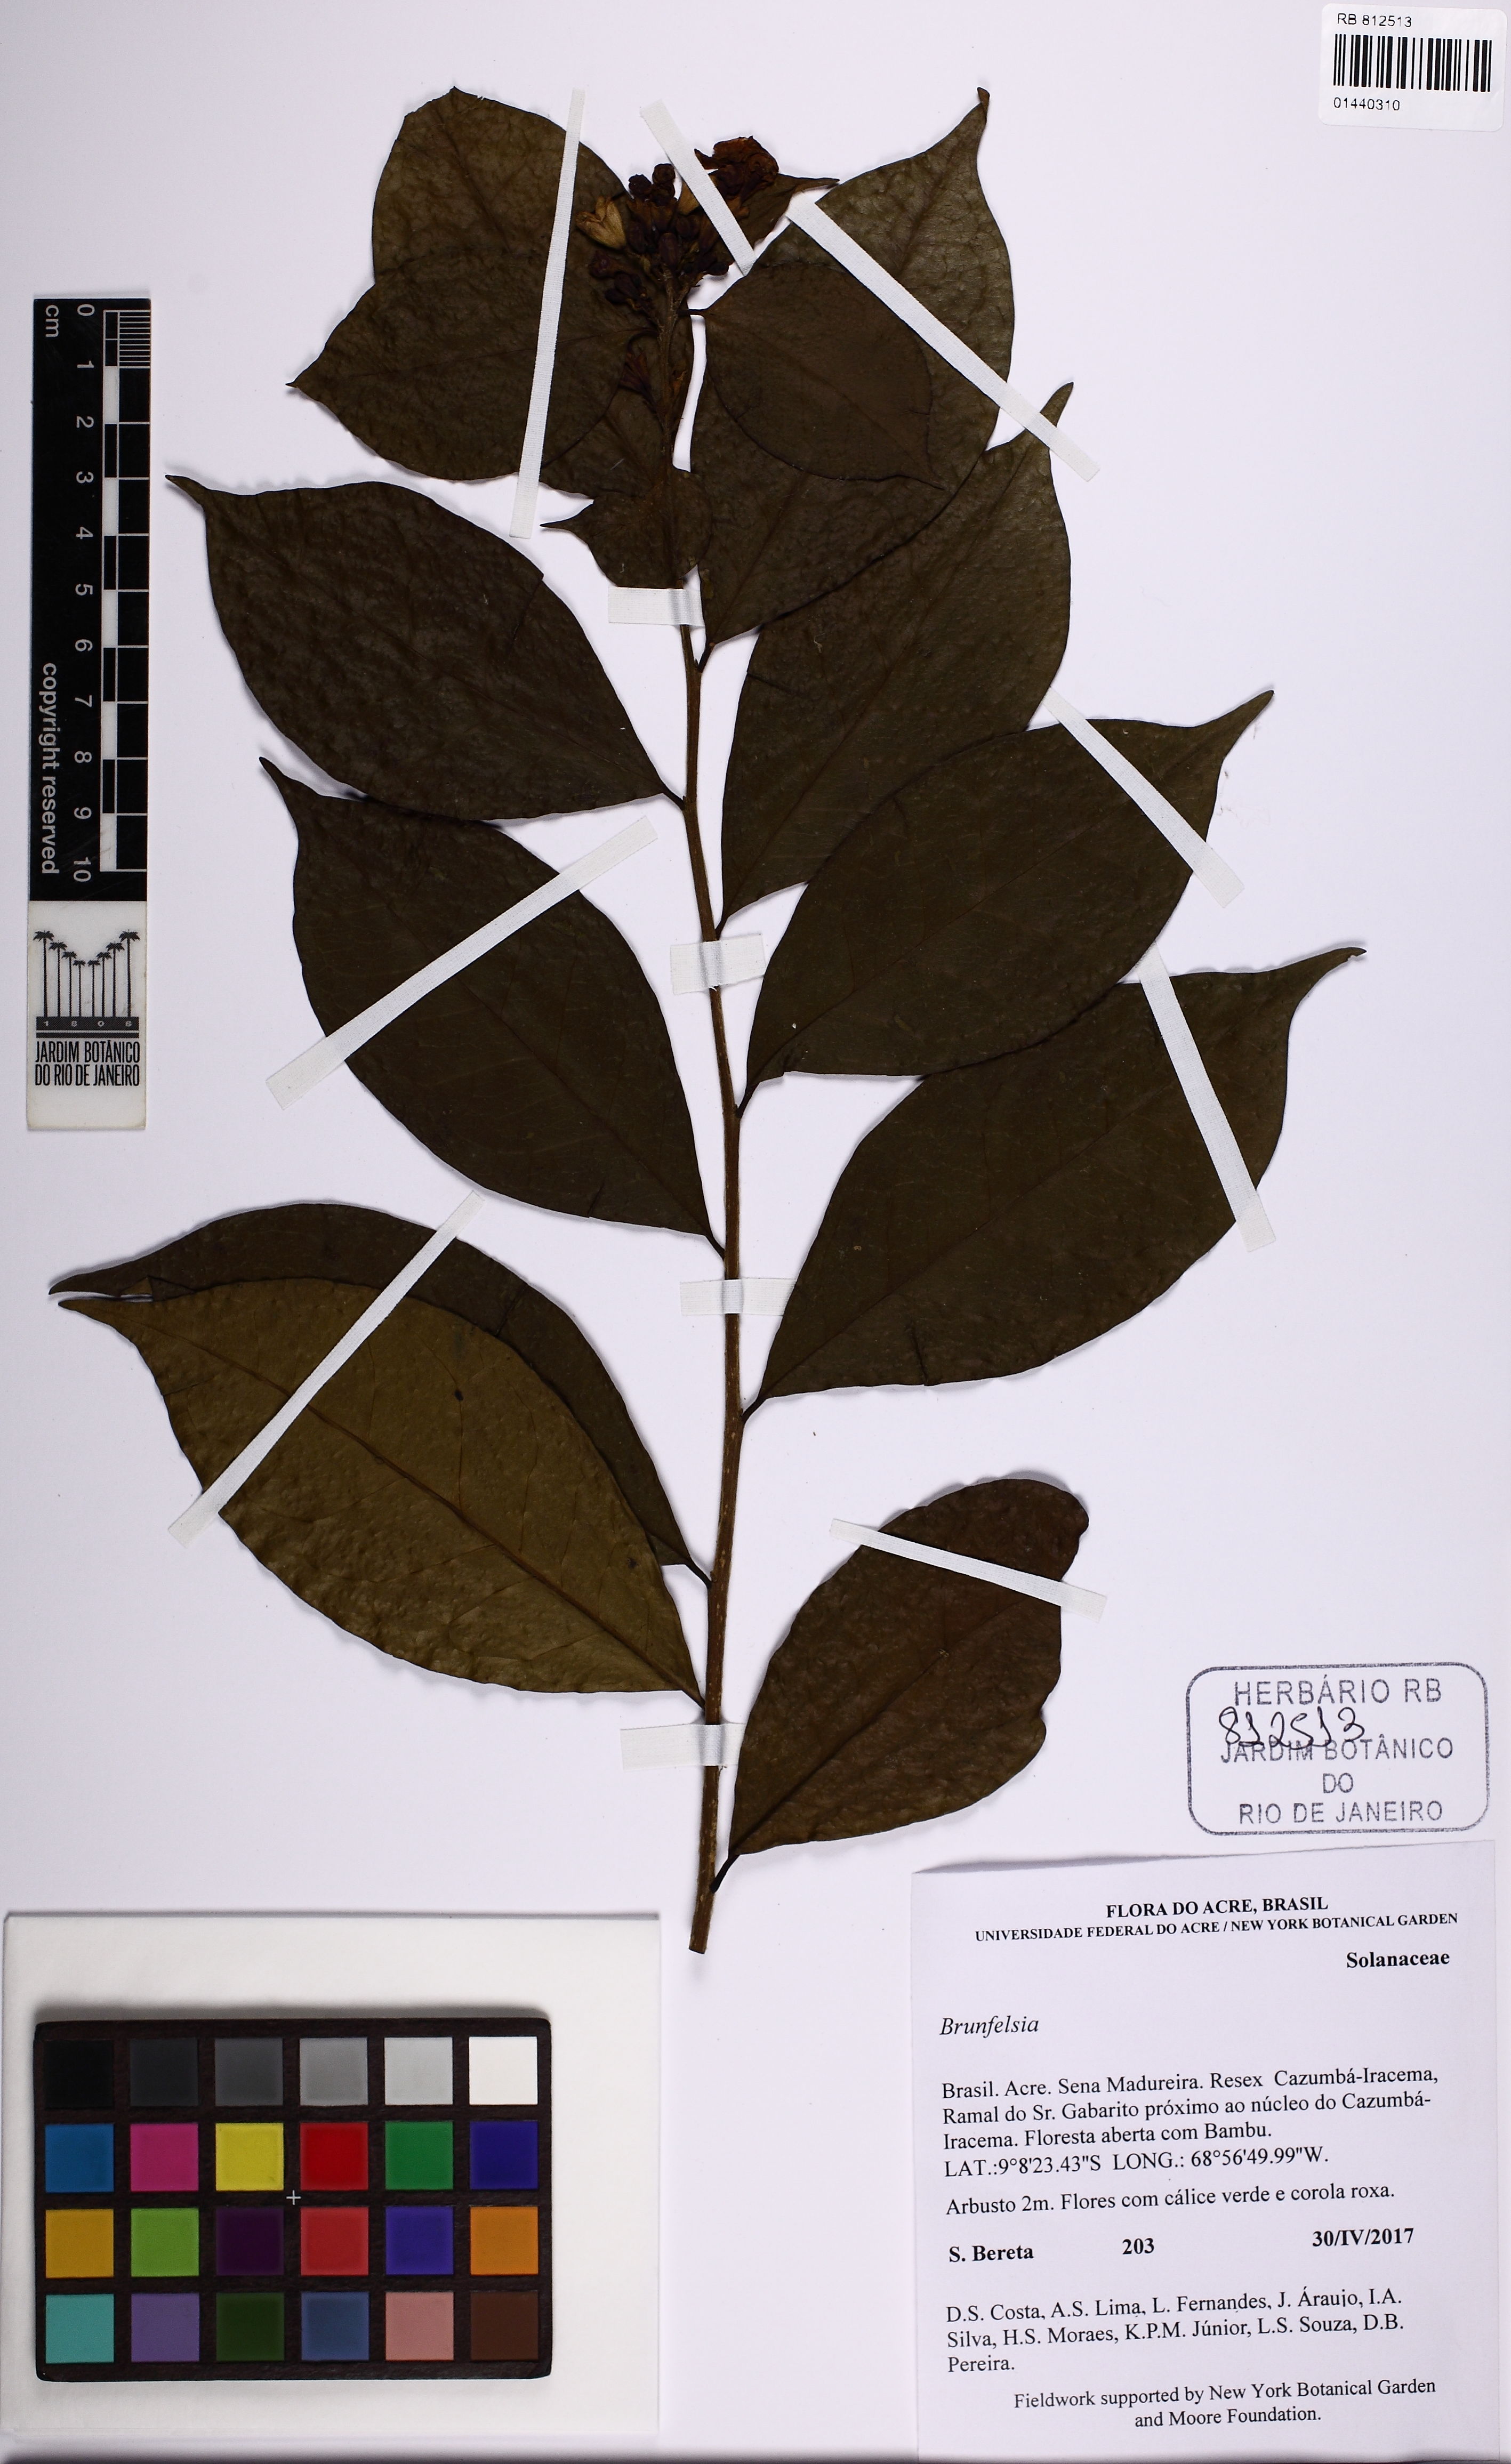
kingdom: Plantae
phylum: Tracheophyta
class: Magnoliopsida
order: Solanales
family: Solanaceae
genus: Brunfelsia
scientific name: Brunfelsia
